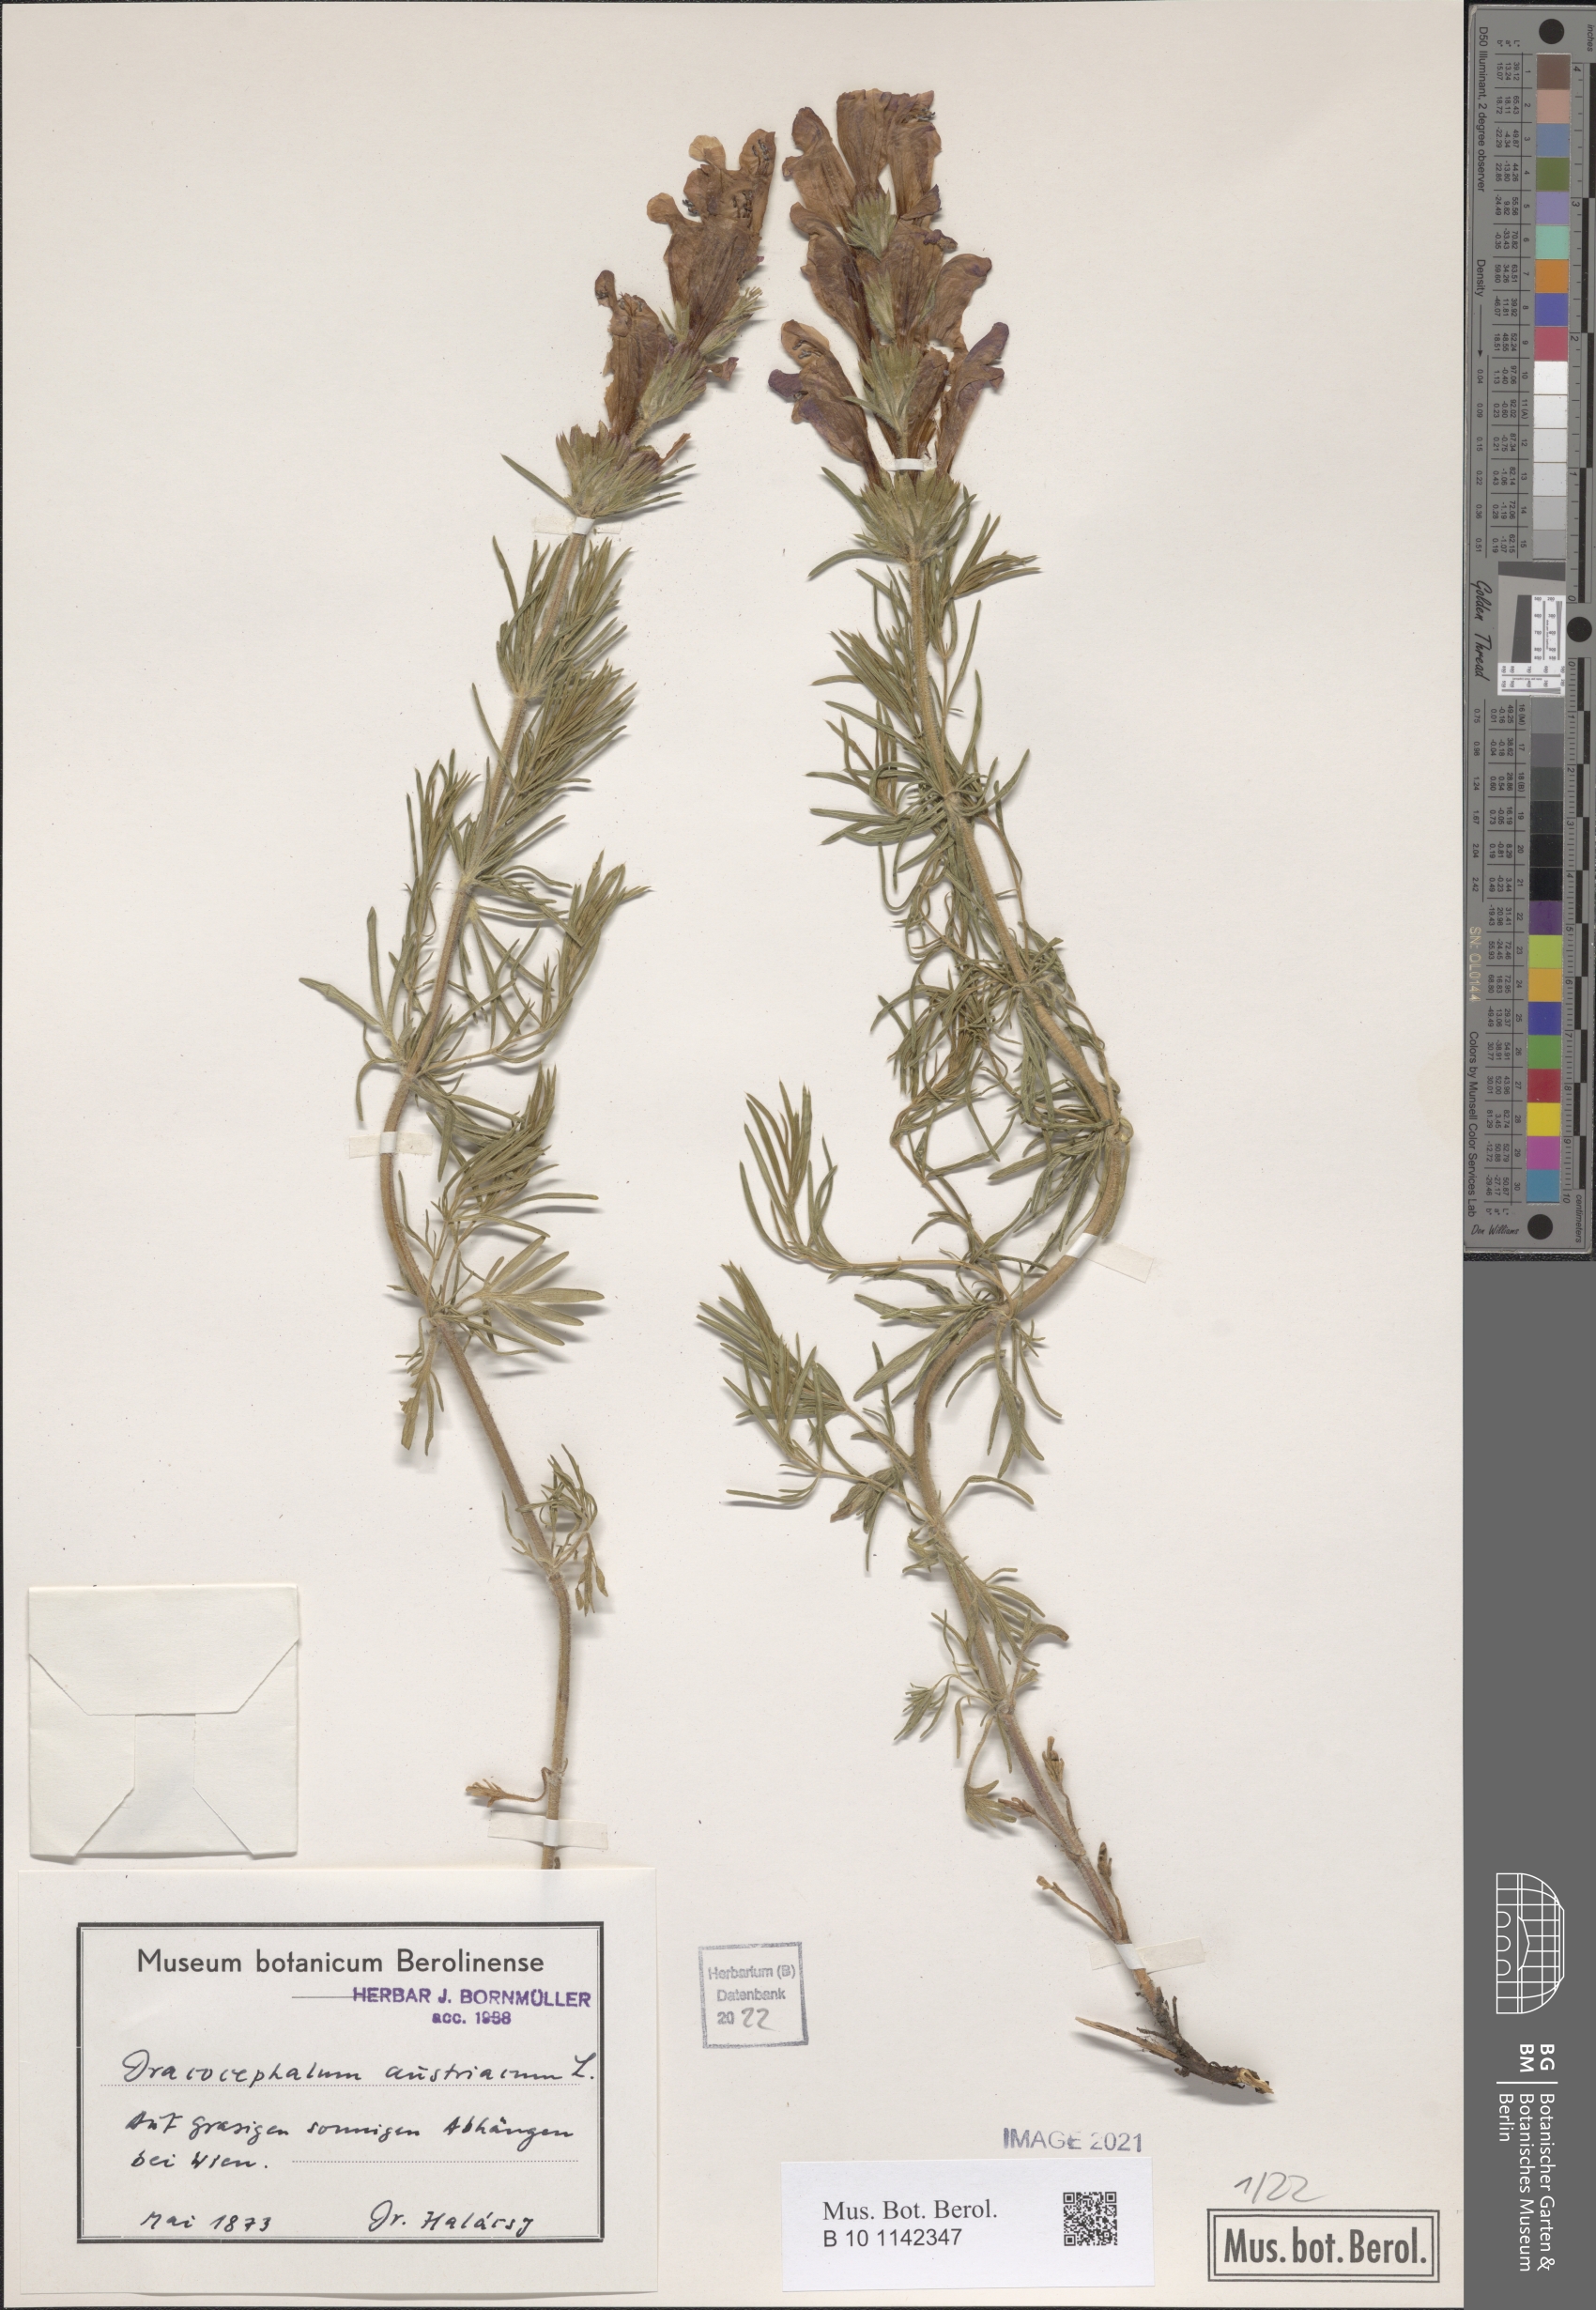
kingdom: Plantae
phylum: Tracheophyta
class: Magnoliopsida
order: Lamiales
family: Lamiaceae
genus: Dracocephalum
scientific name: Dracocephalum austriacum
